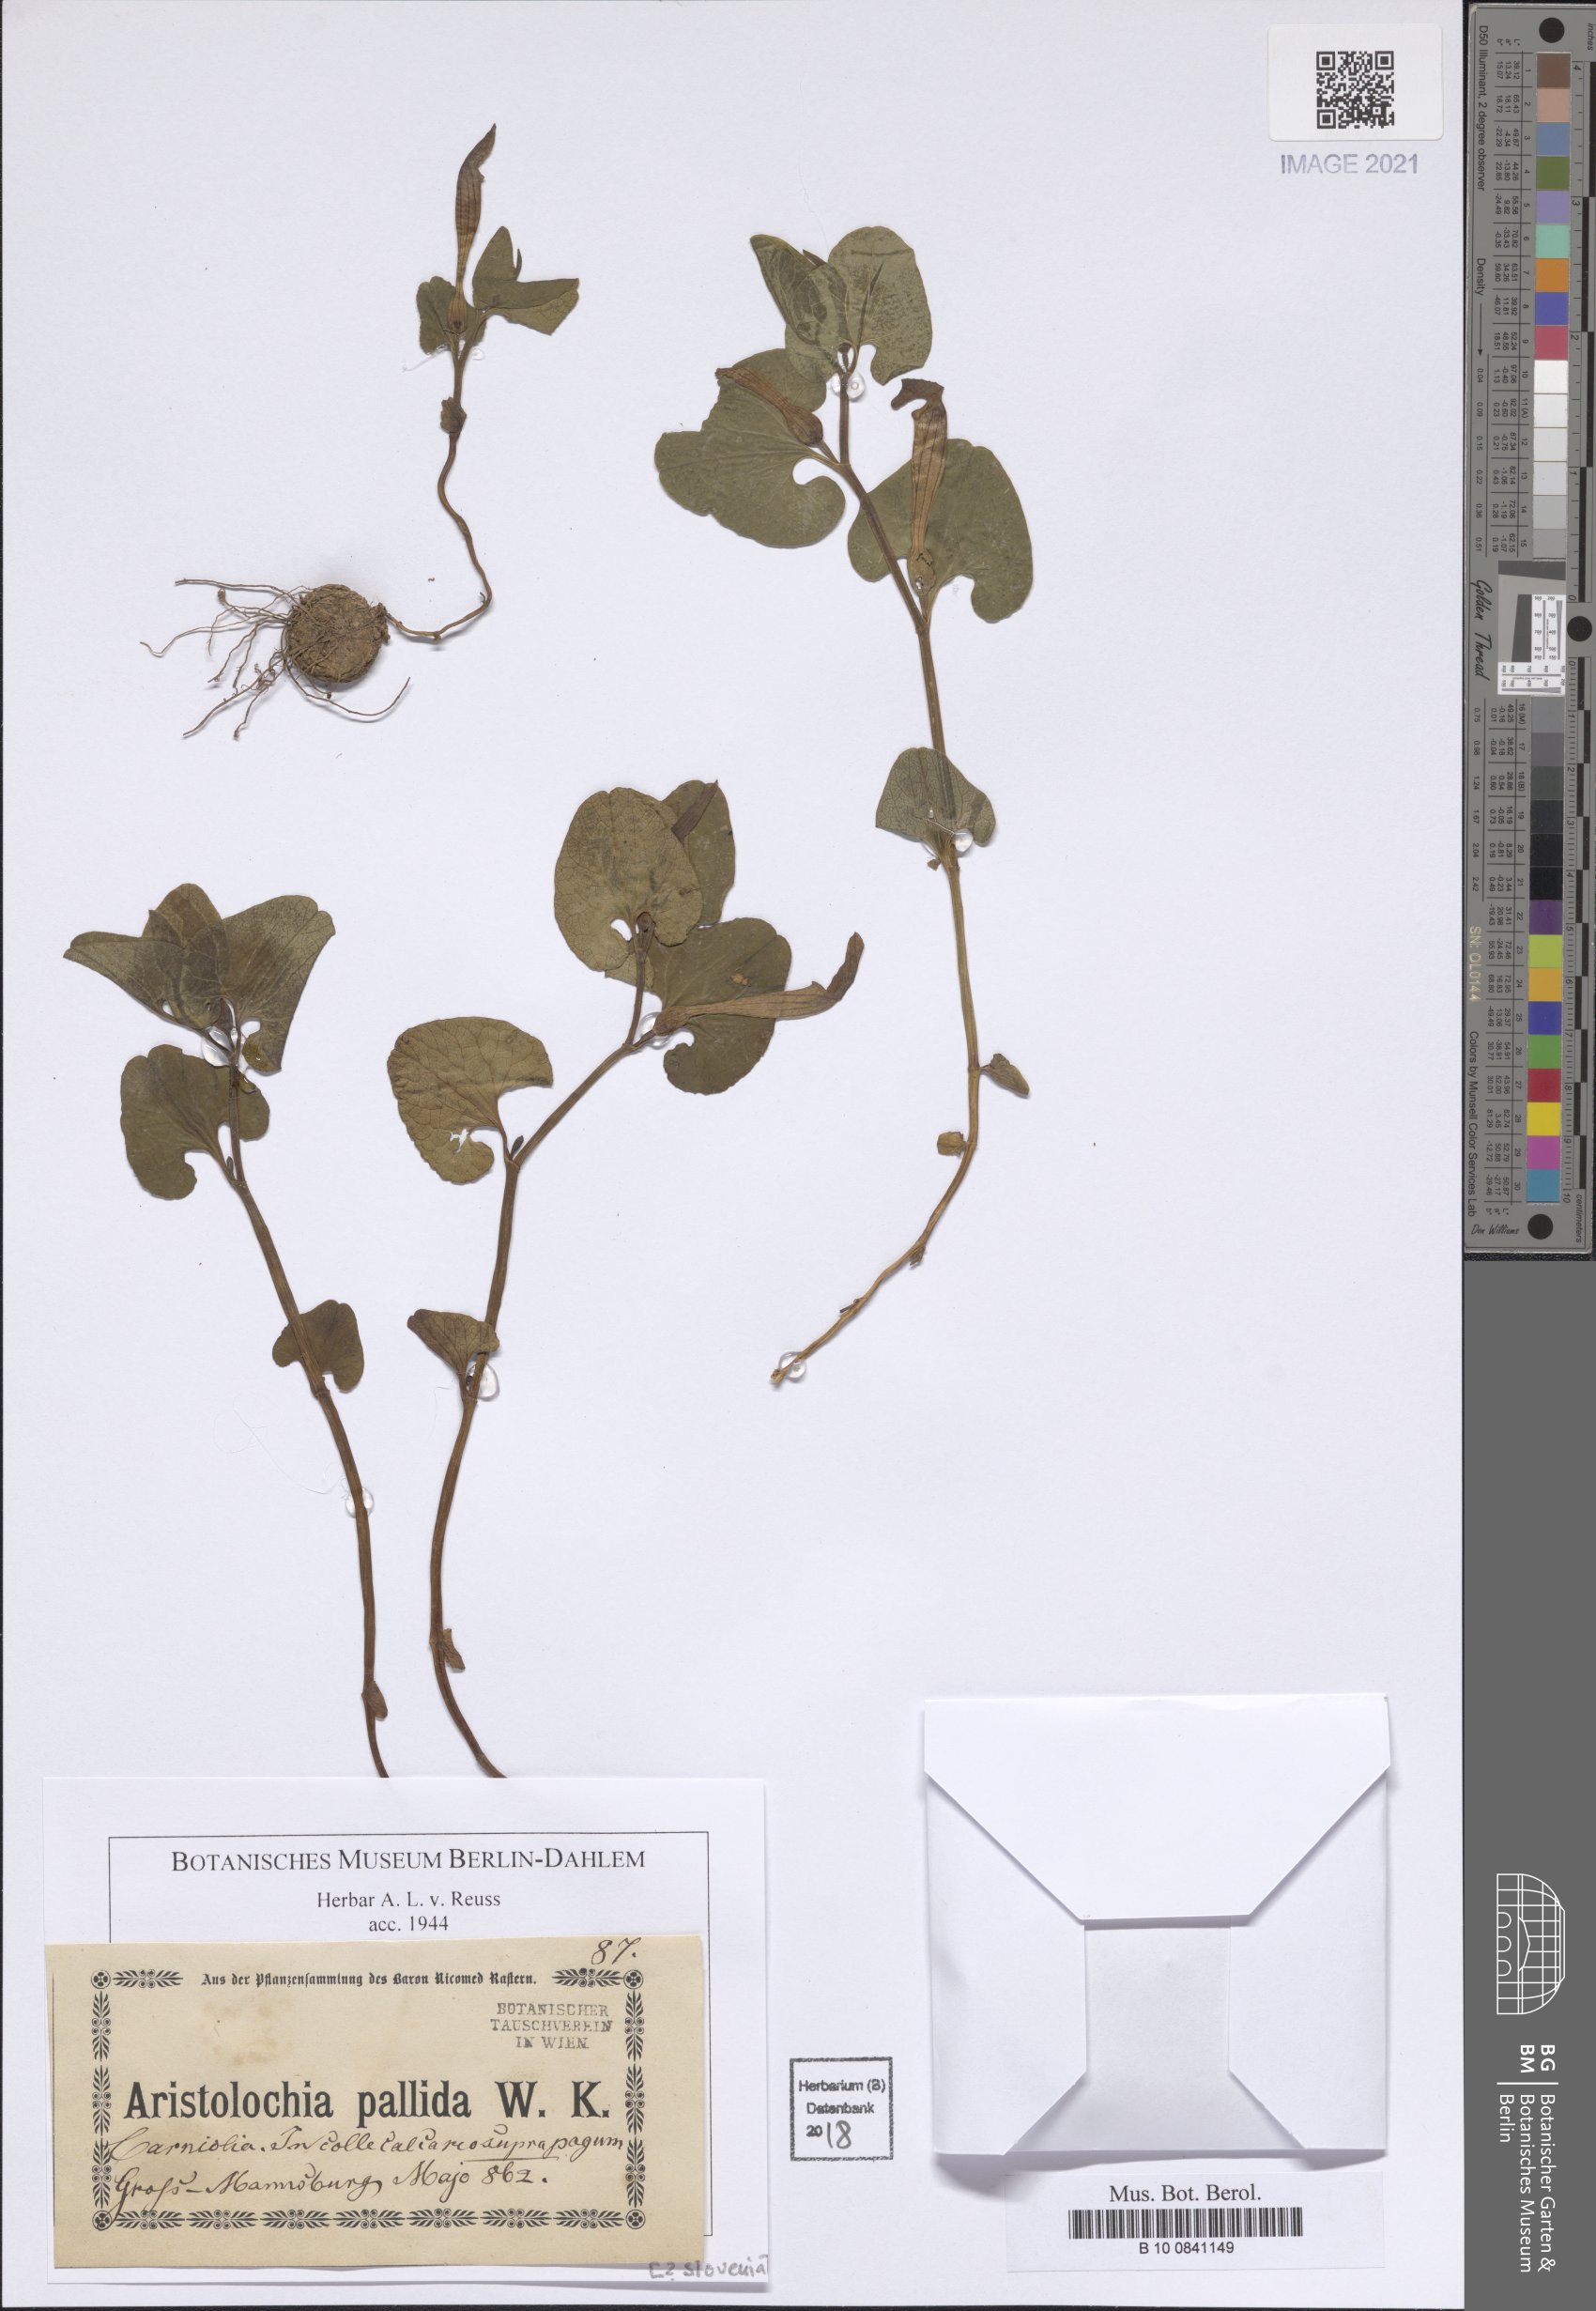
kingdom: Plantae
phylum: Tracheophyta
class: Magnoliopsida
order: Piperales
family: Aristolochiaceae
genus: Aristolochia
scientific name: Aristolochia pallida
